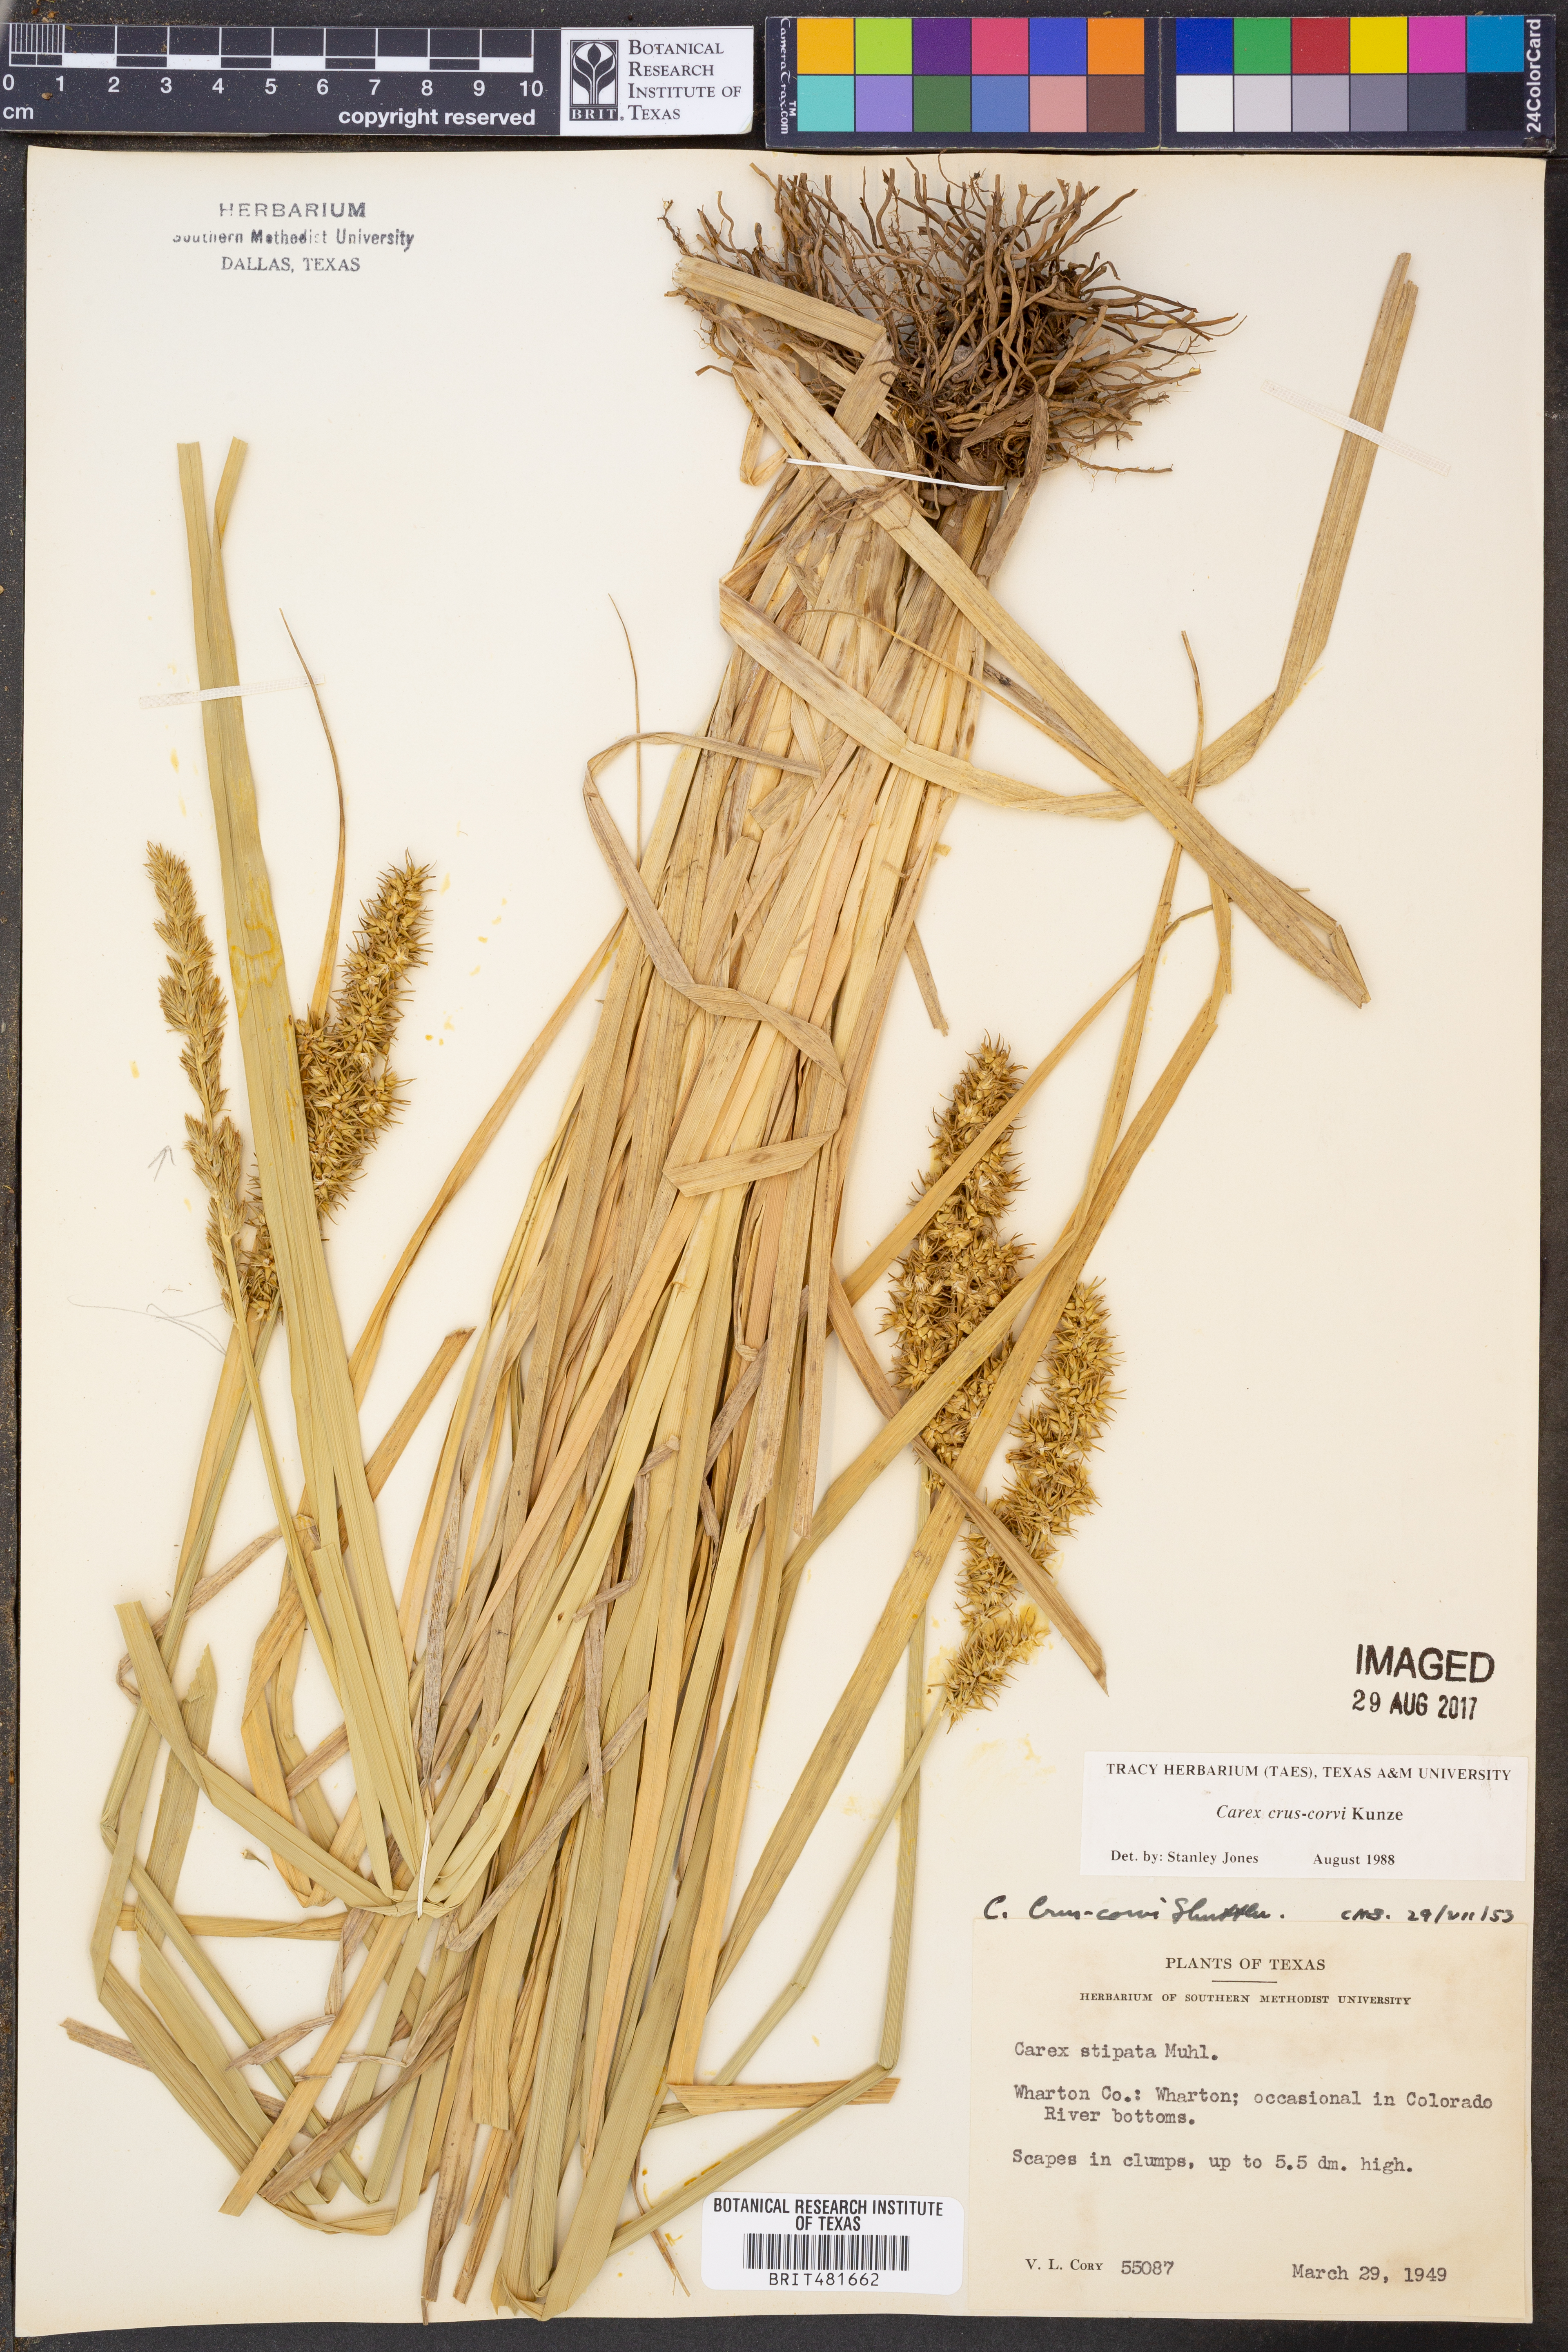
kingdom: Plantae
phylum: Tracheophyta
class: Liliopsida
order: Poales
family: Cyperaceae
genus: Carex
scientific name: Carex crus-corvi
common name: Crow-spur sedge
